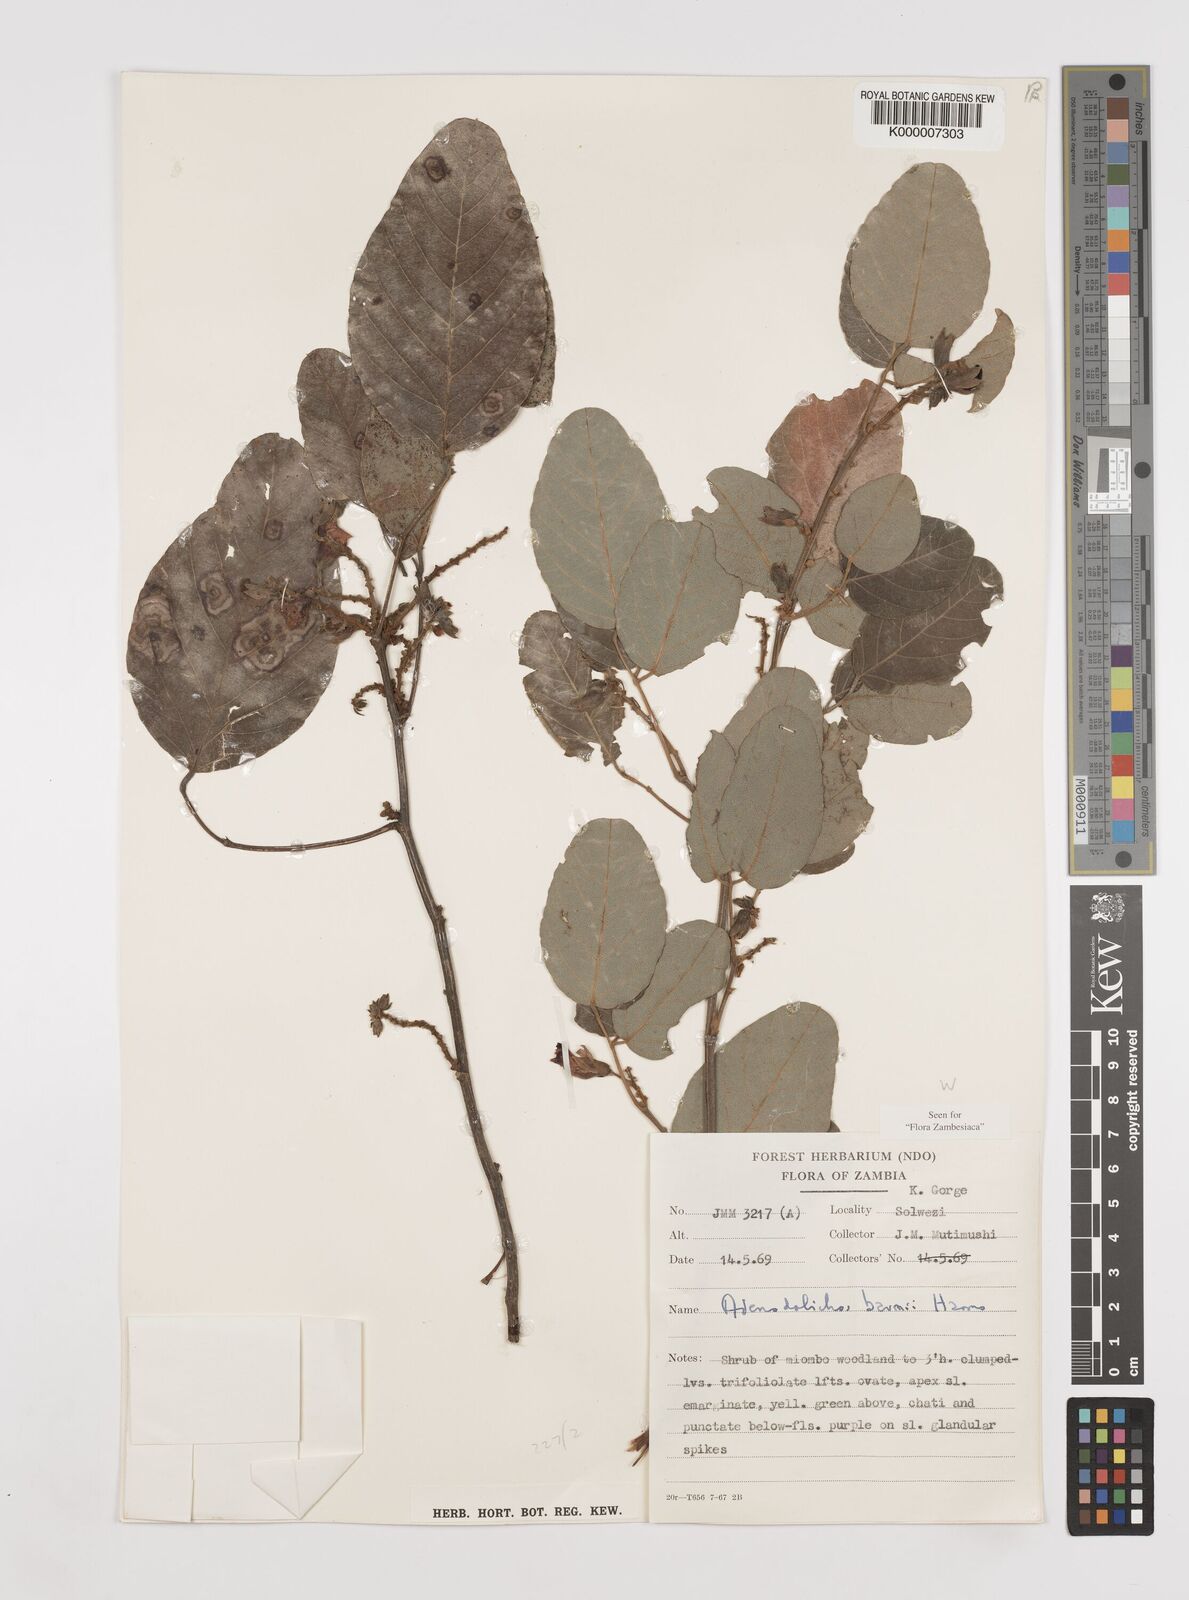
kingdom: Plantae
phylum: Tracheophyta
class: Magnoliopsida
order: Fabales
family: Fabaceae
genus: Adenodolichos
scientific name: Adenodolichos baumii
